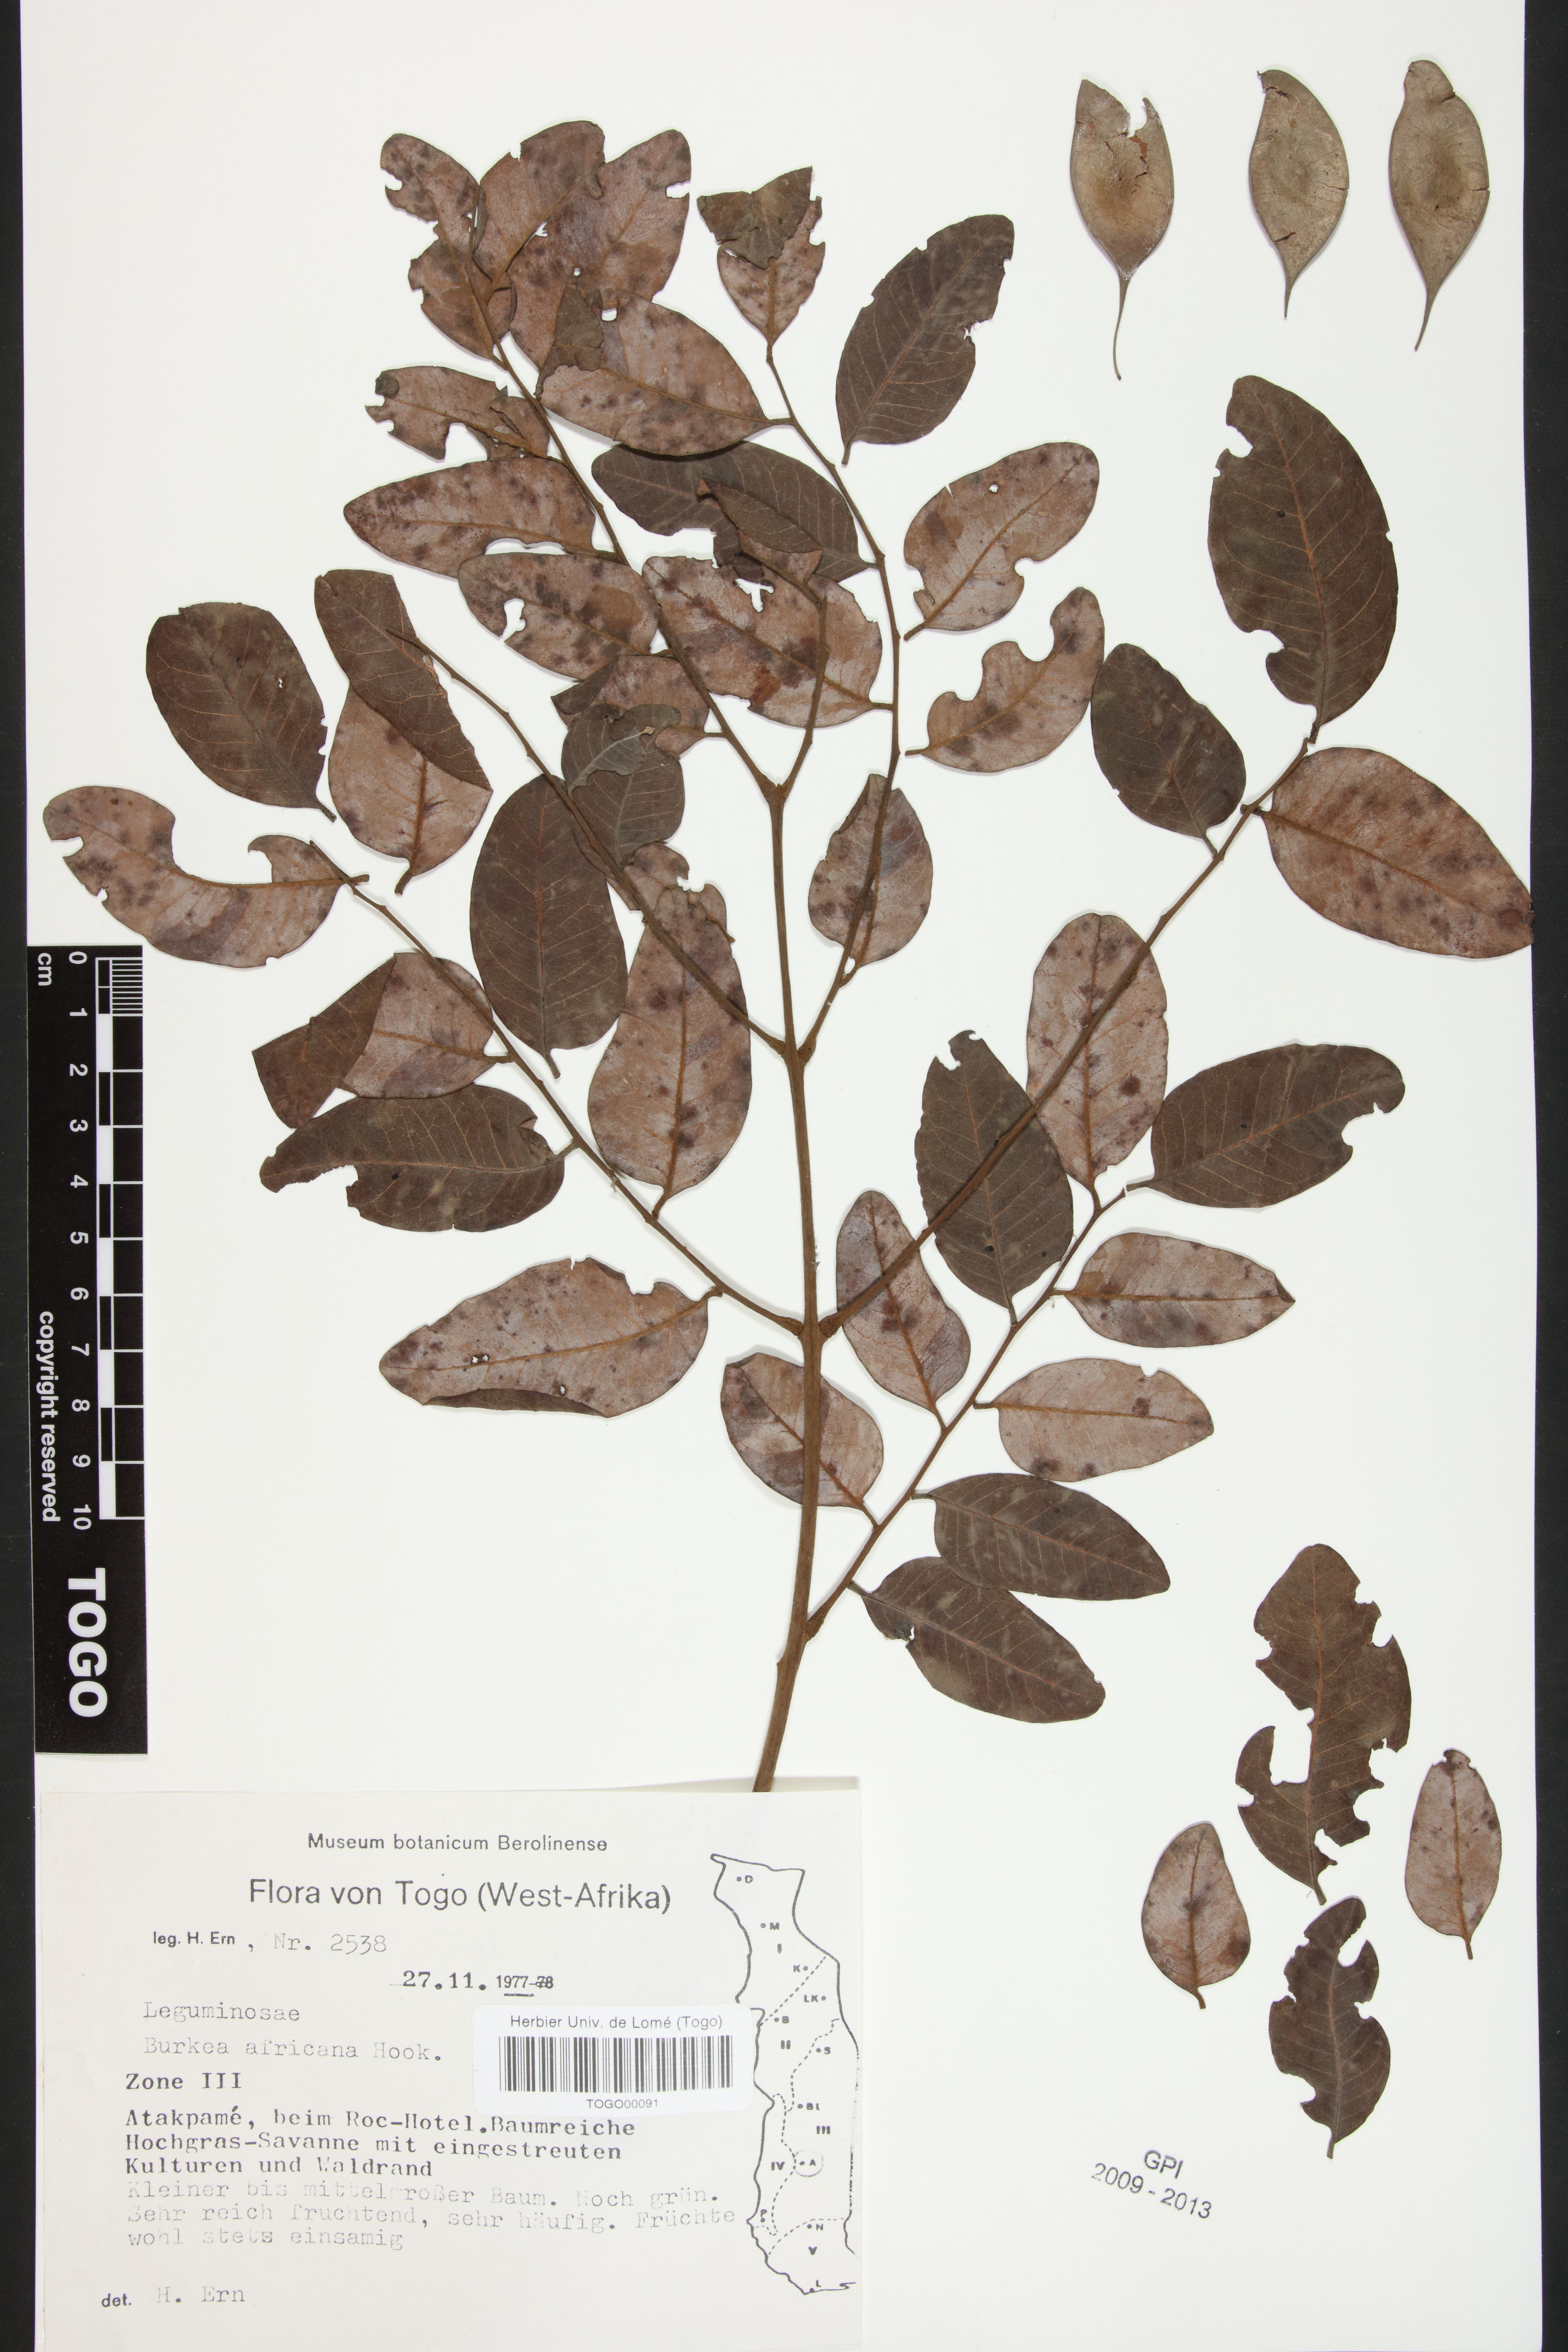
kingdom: Plantae
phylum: Tracheophyta
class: Magnoliopsida
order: Fabales
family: Fabaceae
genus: Burkea
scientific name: Burkea africana
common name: Mkalati tree
